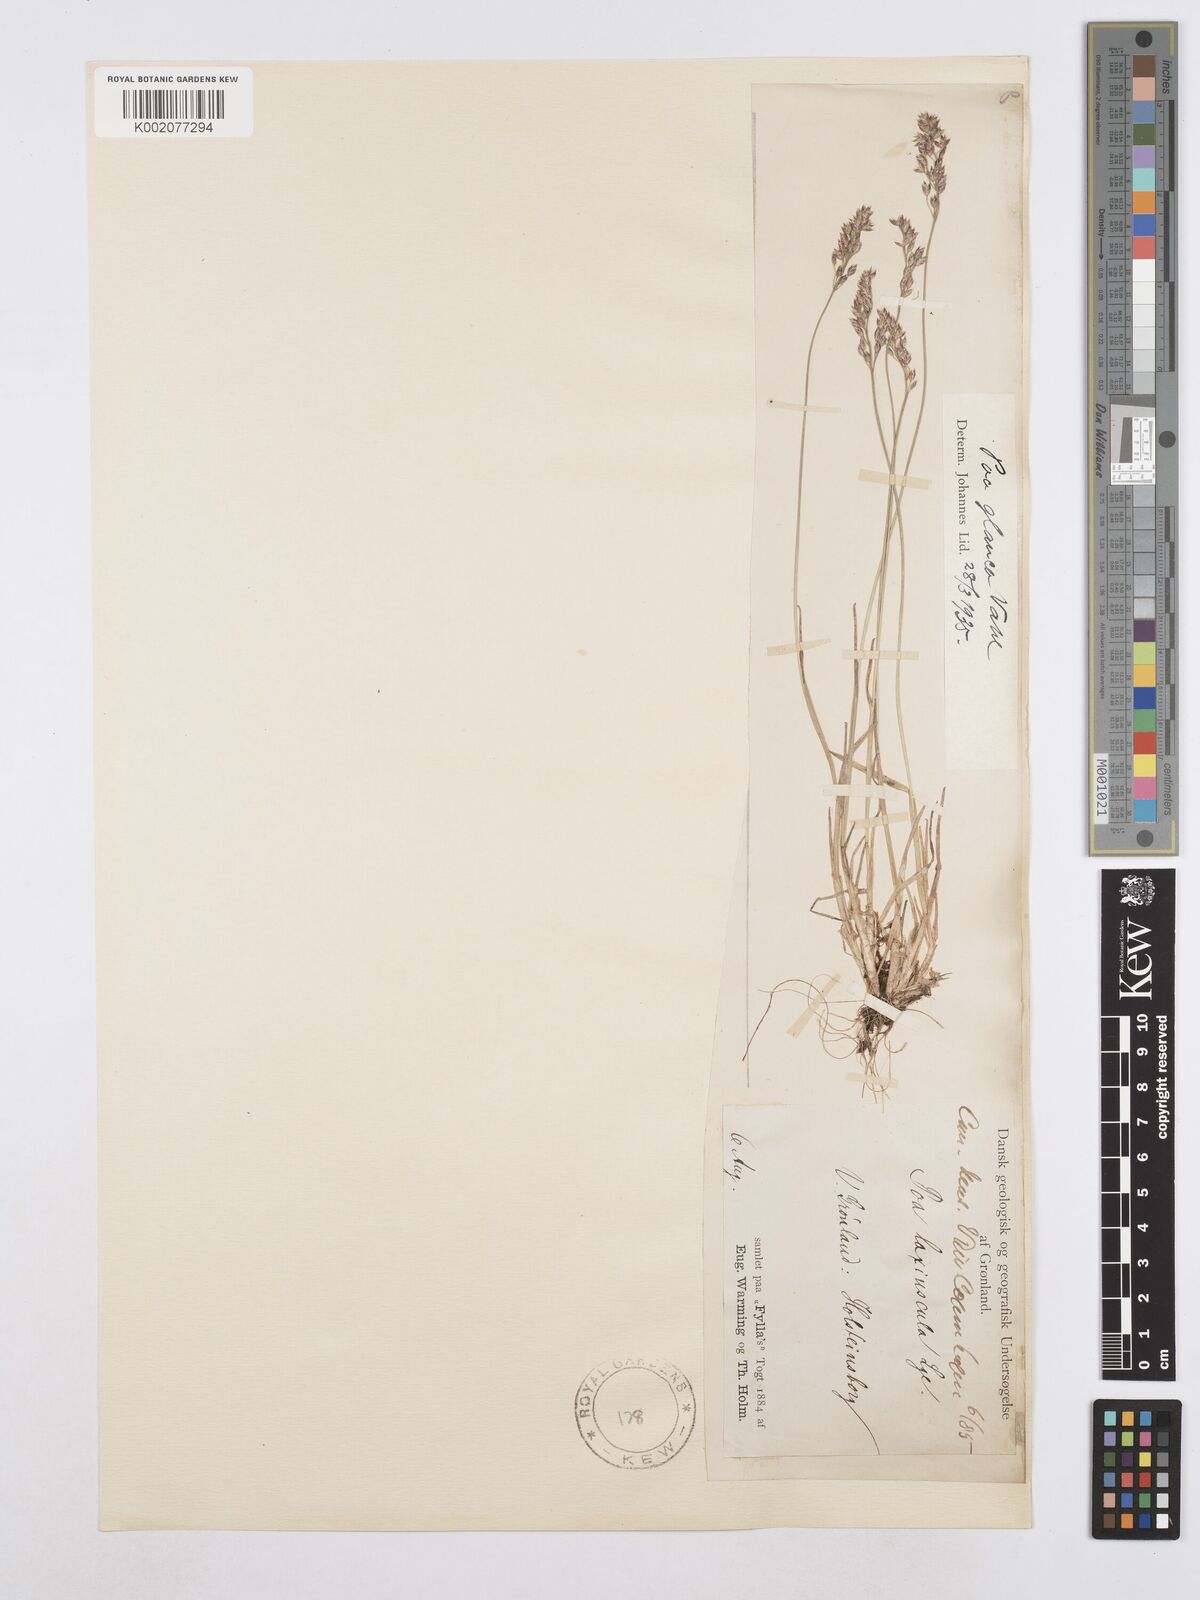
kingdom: Plantae
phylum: Tracheophyta
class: Liliopsida
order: Poales
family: Poaceae
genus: Poa
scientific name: Poa glauca
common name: Glaucous bluegrass
